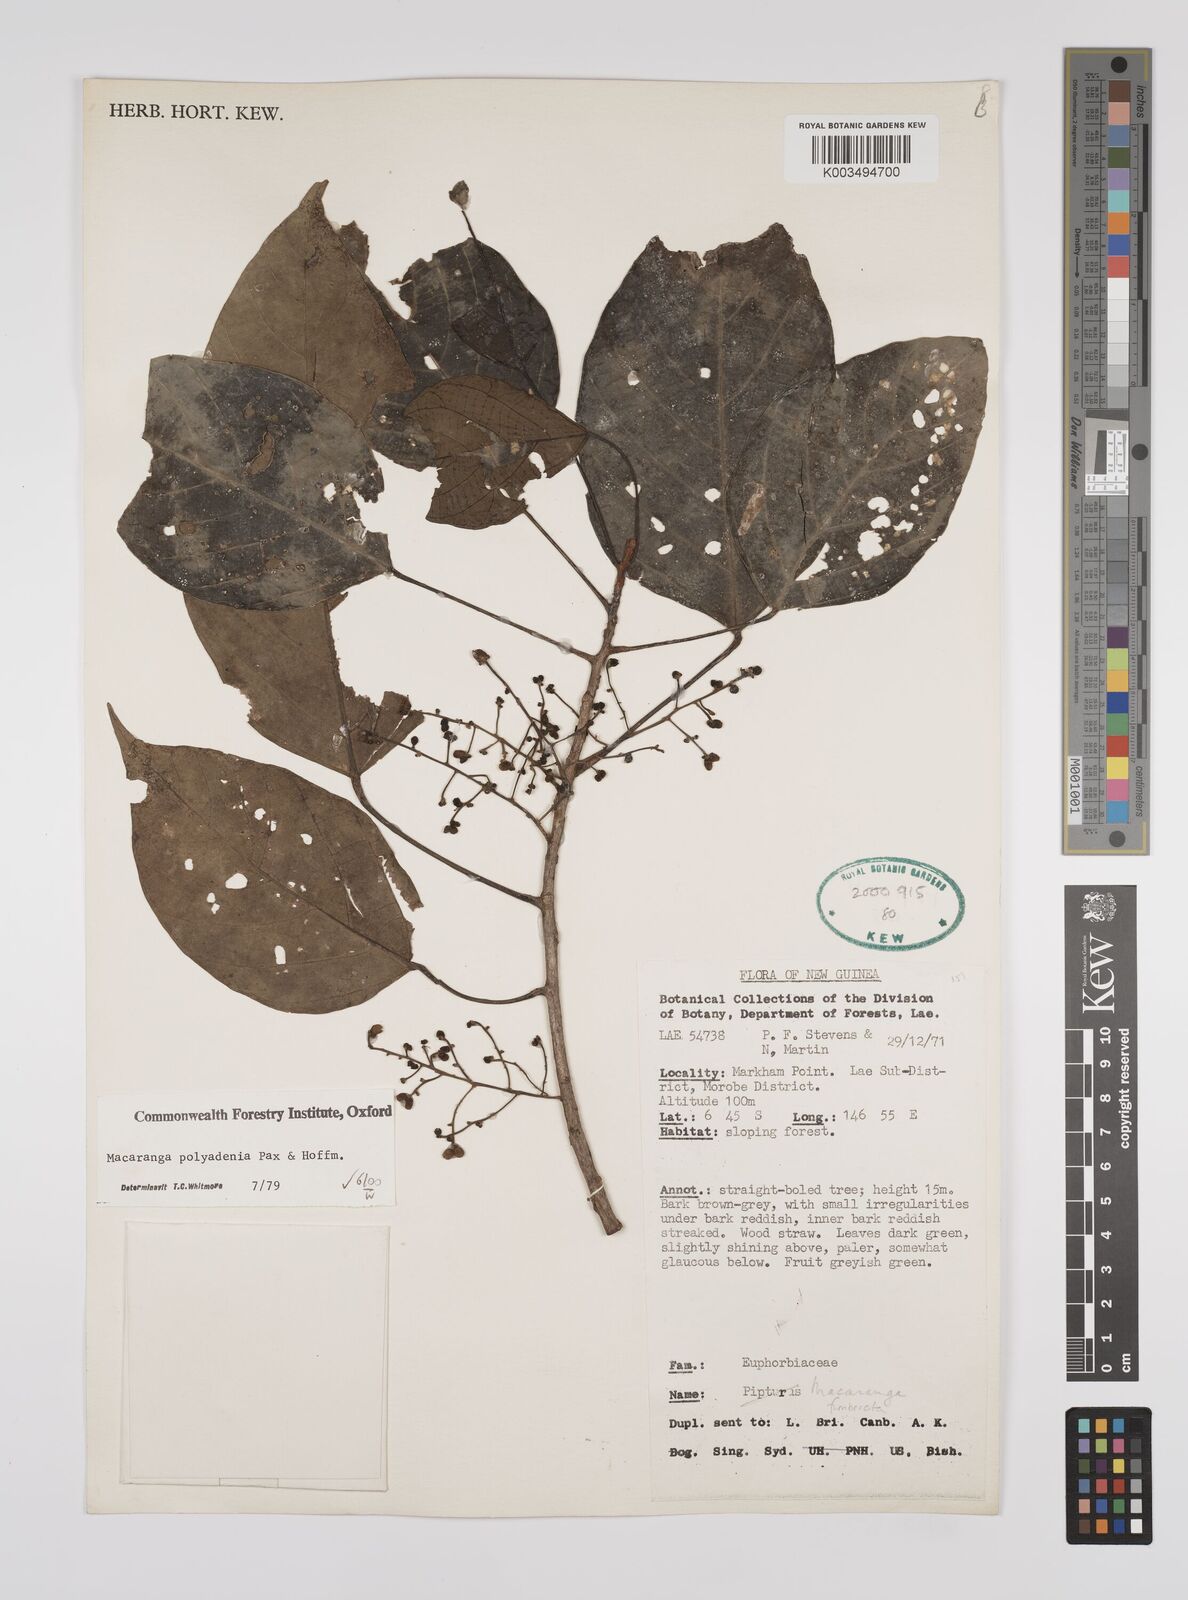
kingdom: Plantae
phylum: Tracheophyta
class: Magnoliopsida
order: Malpighiales
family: Euphorbiaceae
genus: Macaranga
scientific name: Macaranga polyadenia
